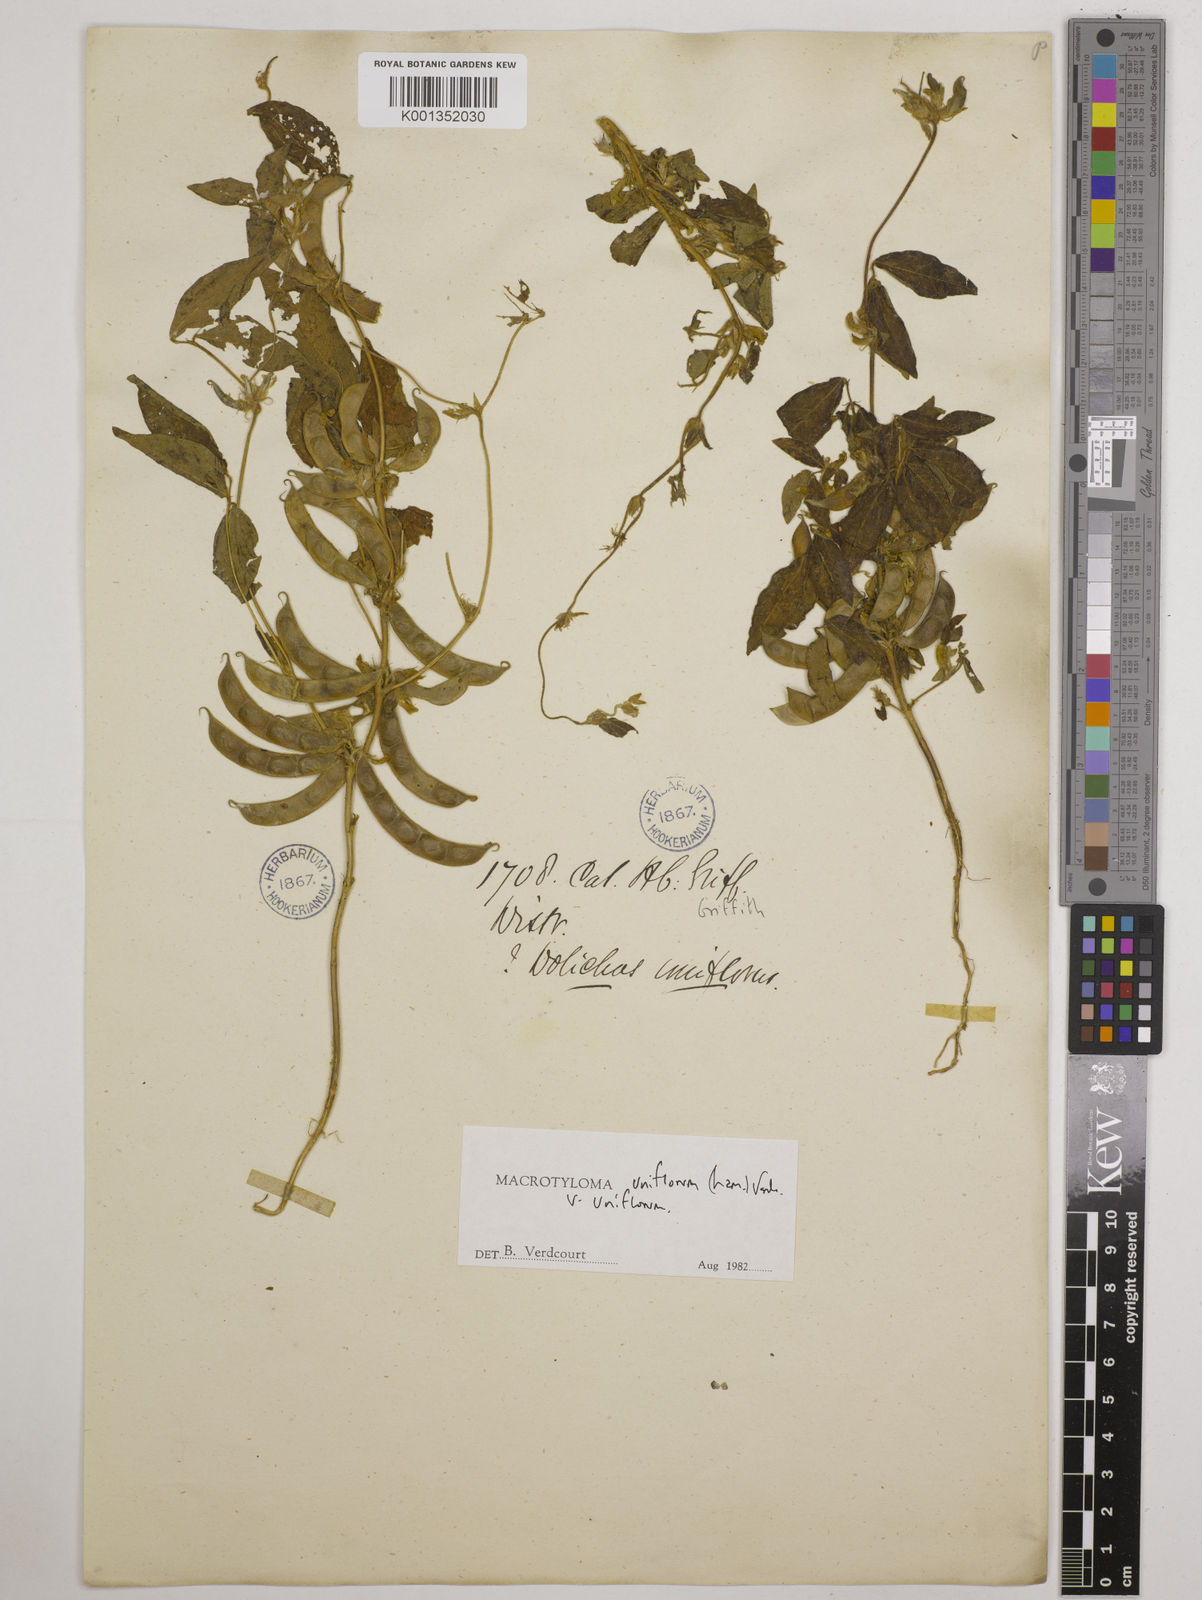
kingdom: Plantae
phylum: Tracheophyta
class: Magnoliopsida
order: Fabales
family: Fabaceae
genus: Macrotyloma
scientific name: Macrotyloma uniflorum
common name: Horse gram
